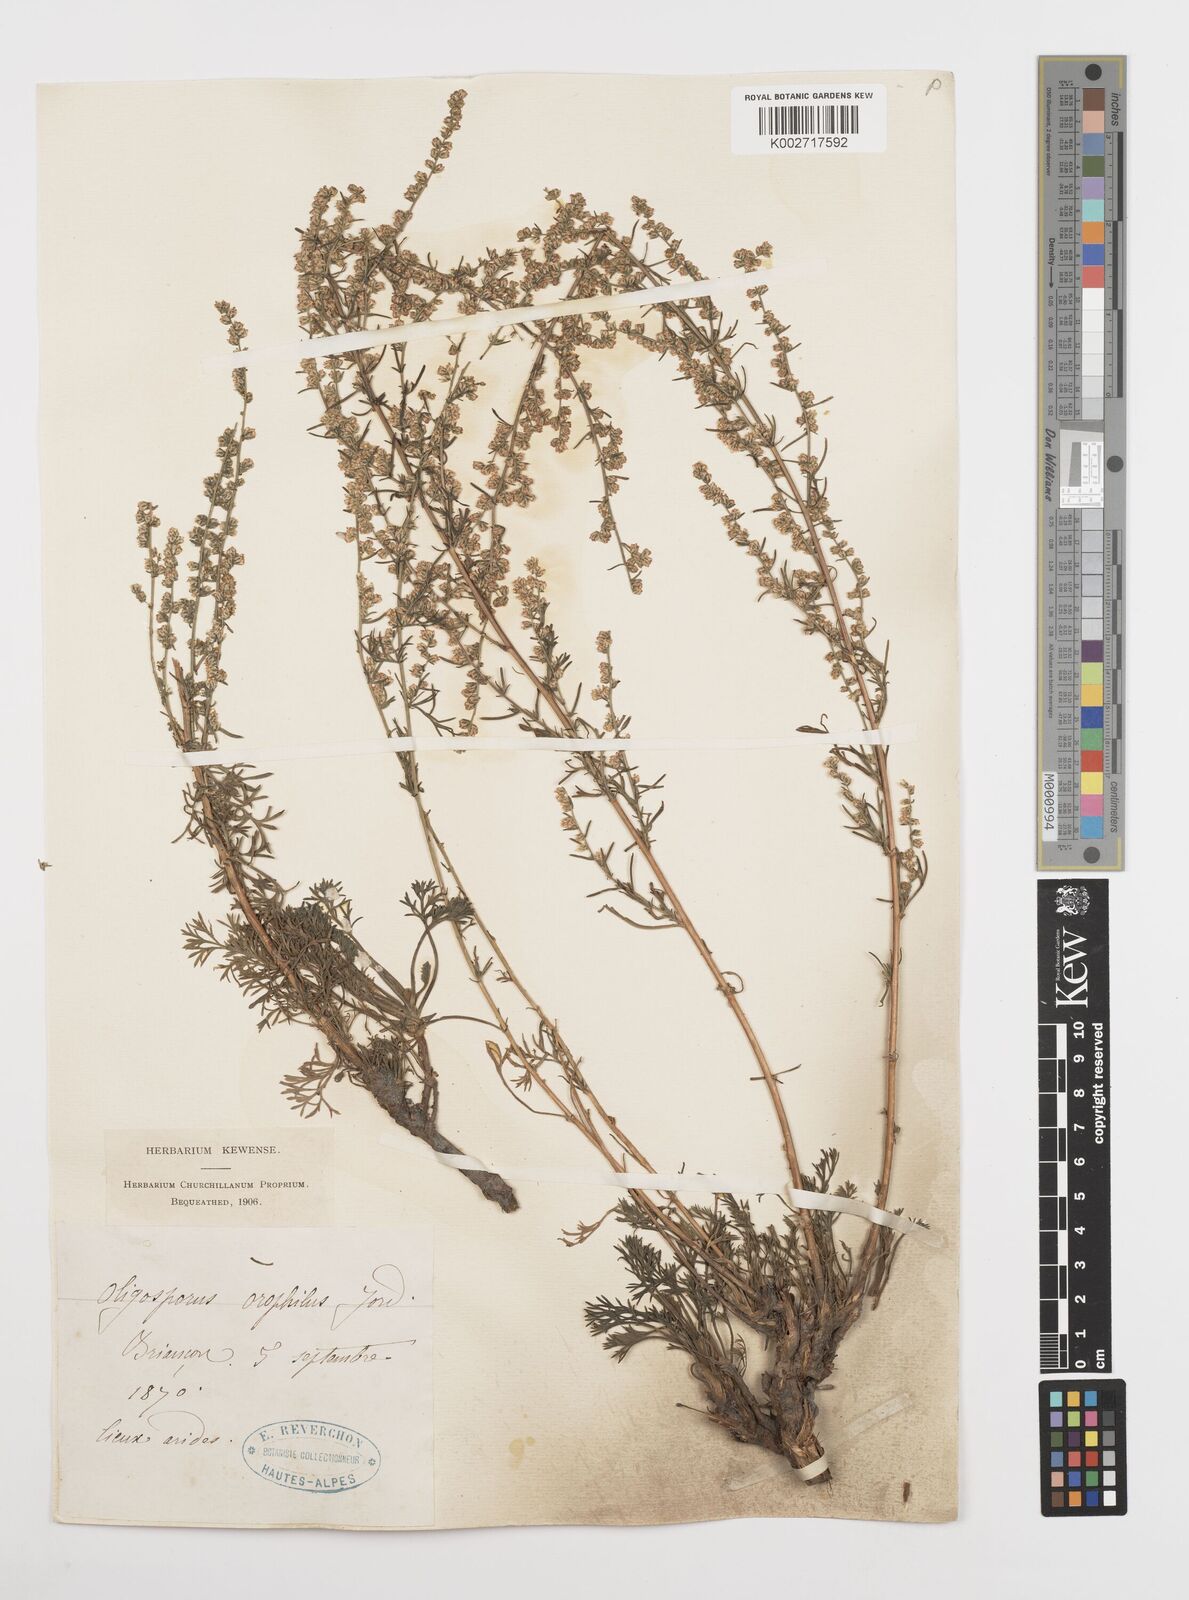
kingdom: Plantae
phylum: Tracheophyta
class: Magnoliopsida
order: Asterales
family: Asteraceae
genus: Artemisia
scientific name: Artemisia campestris
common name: Field wormwood
